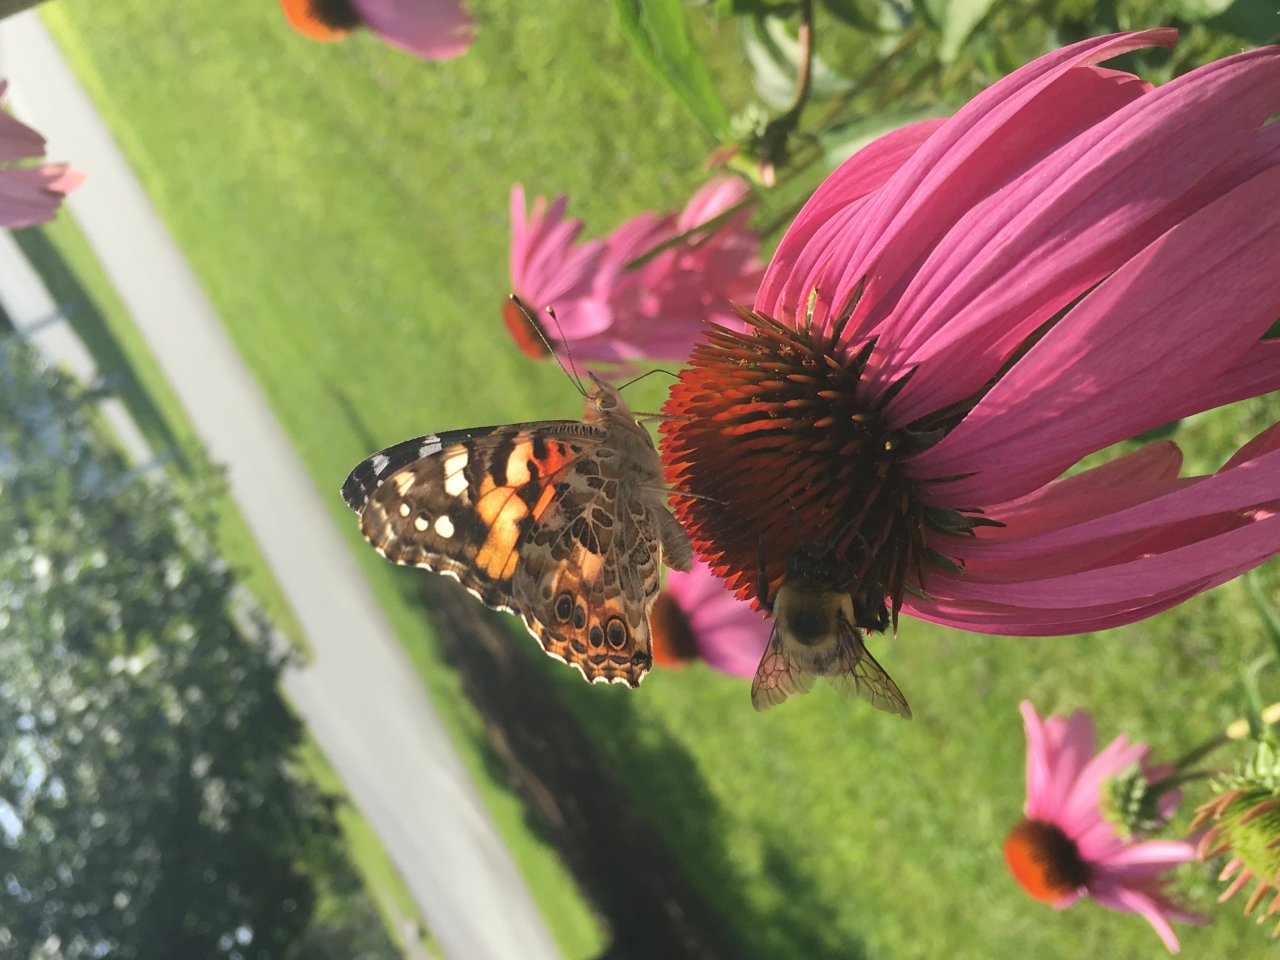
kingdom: Animalia
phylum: Arthropoda
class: Insecta
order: Lepidoptera
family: Nymphalidae
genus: Vanessa
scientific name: Vanessa cardui
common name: Painted Lady
